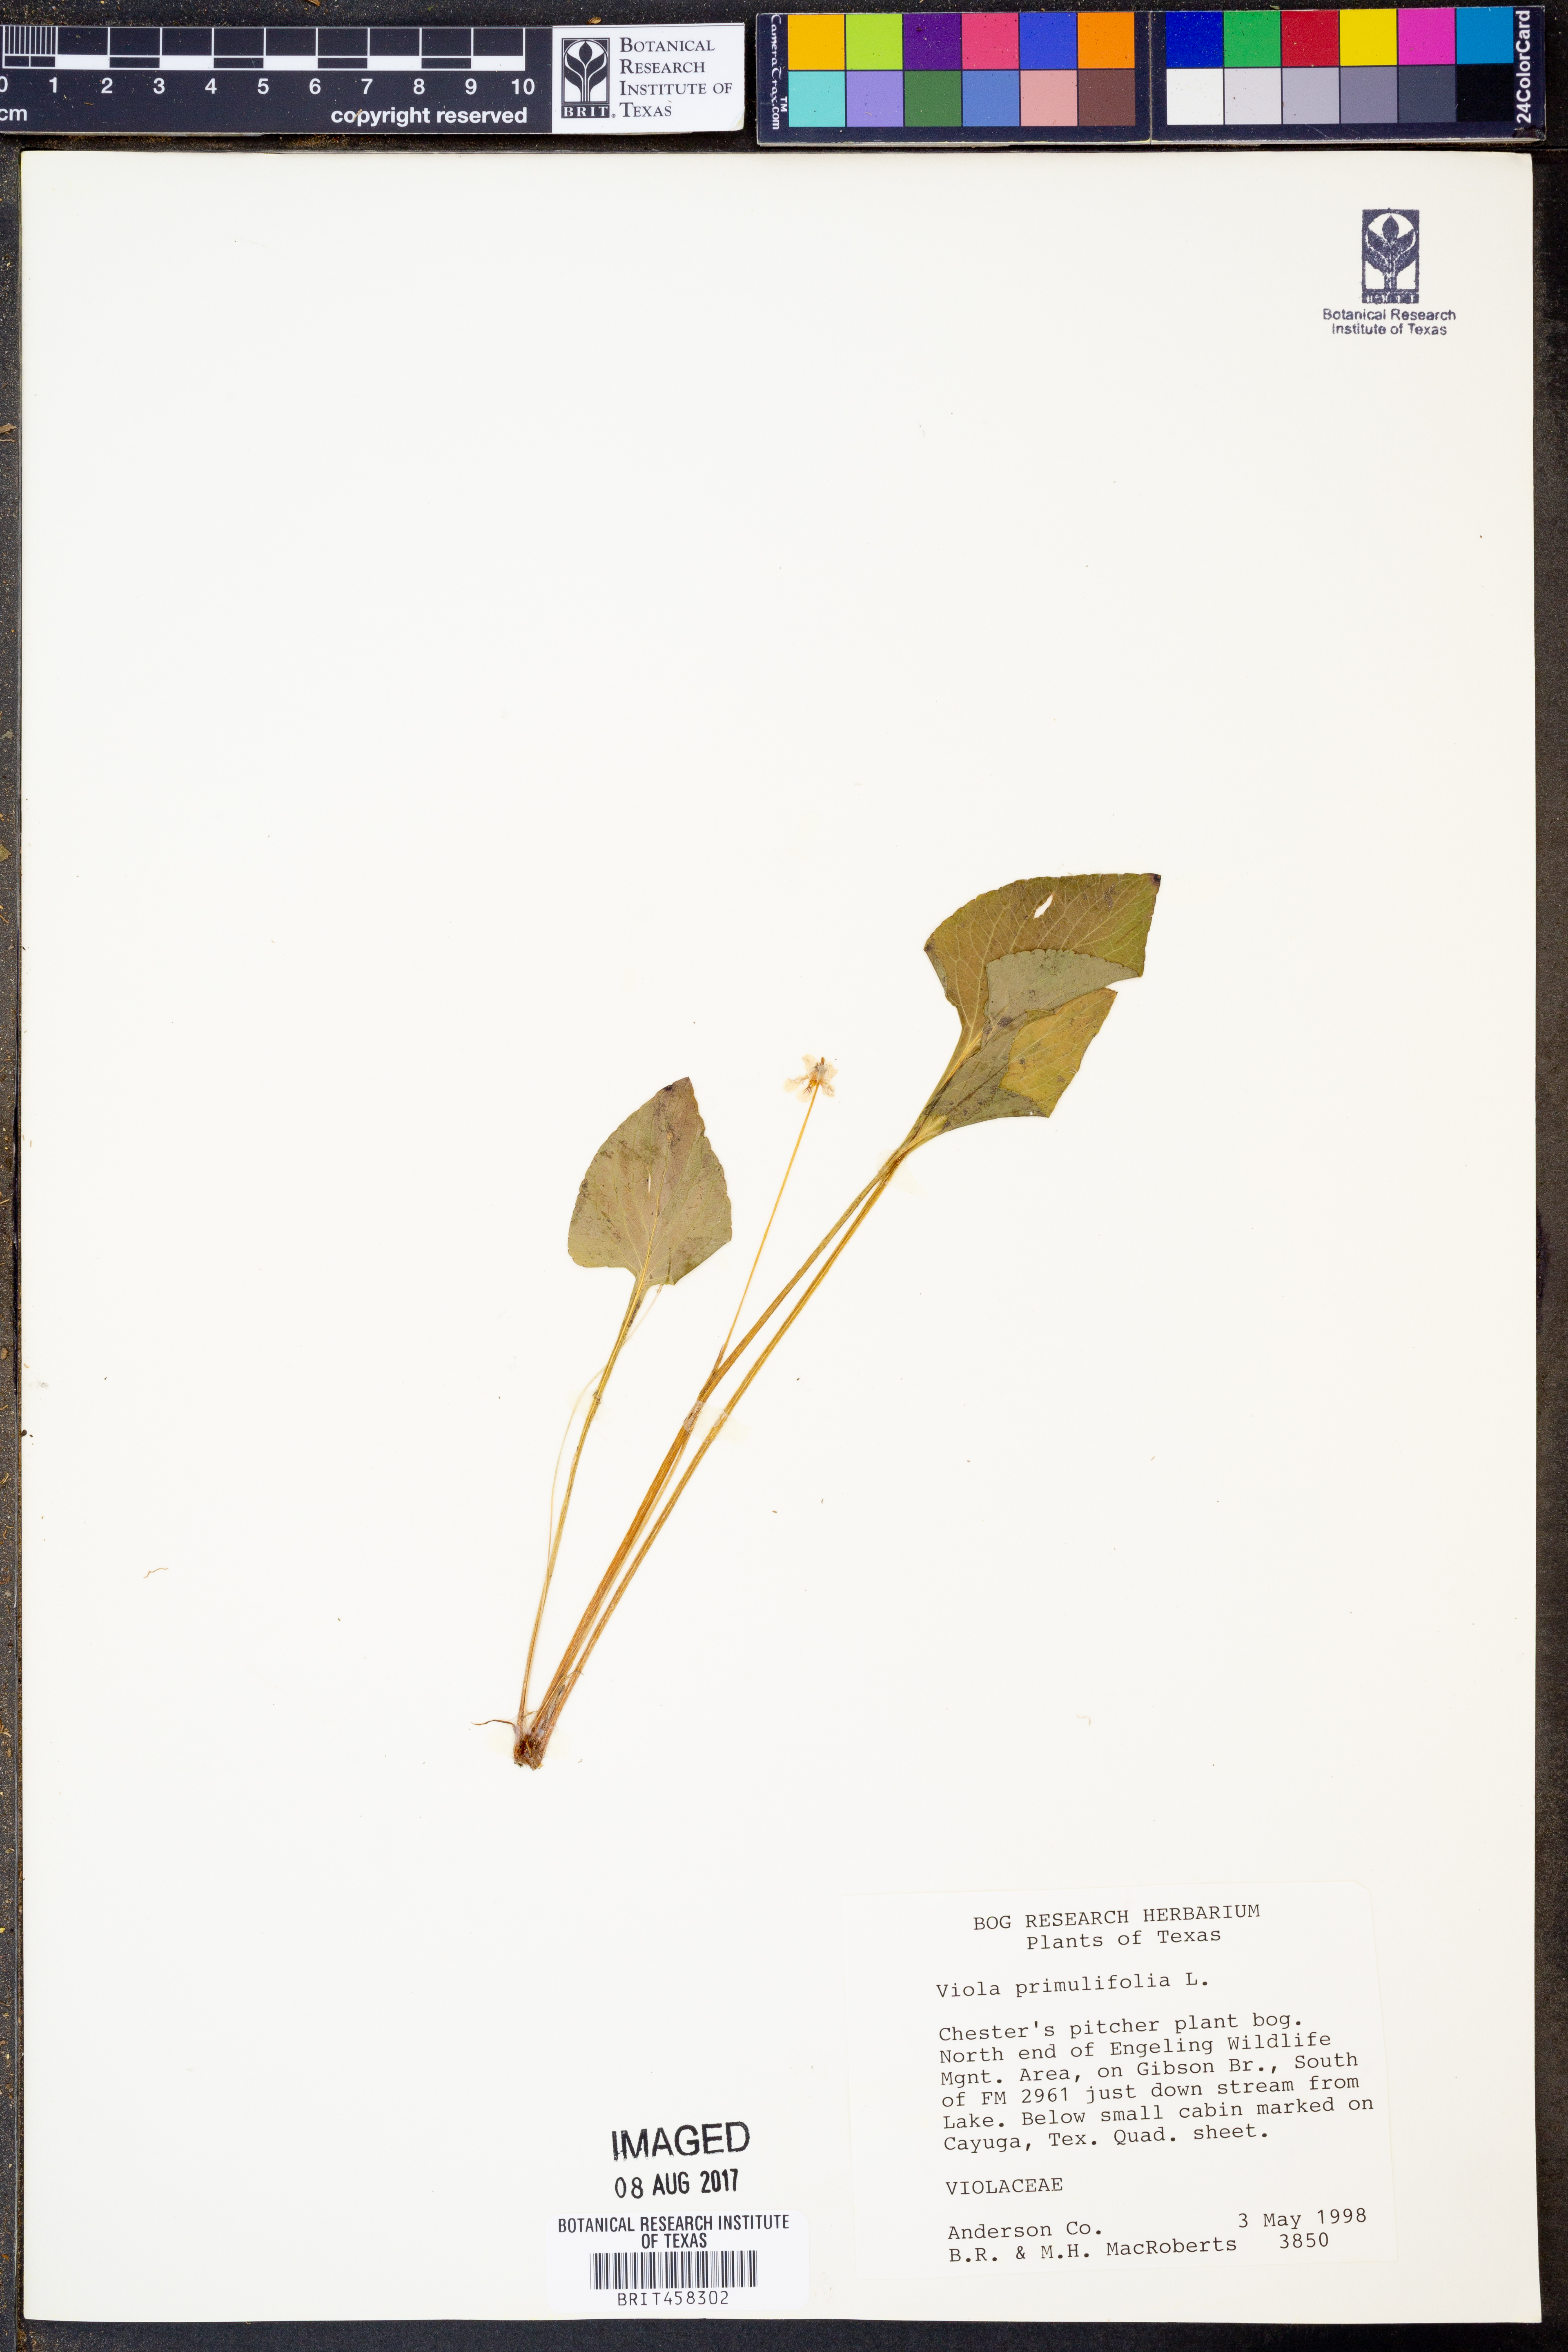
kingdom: Plantae
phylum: Tracheophyta
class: Magnoliopsida
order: Malpighiales
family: Violaceae
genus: Viola
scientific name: Viola primulifolia
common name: Primrose-leaf violet
